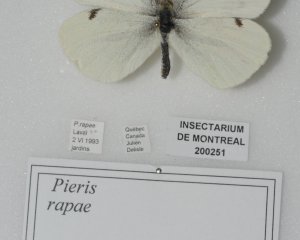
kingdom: Animalia
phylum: Arthropoda
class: Insecta
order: Lepidoptera
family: Pieridae
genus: Pieris
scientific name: Pieris rapae
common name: Cabbage White
